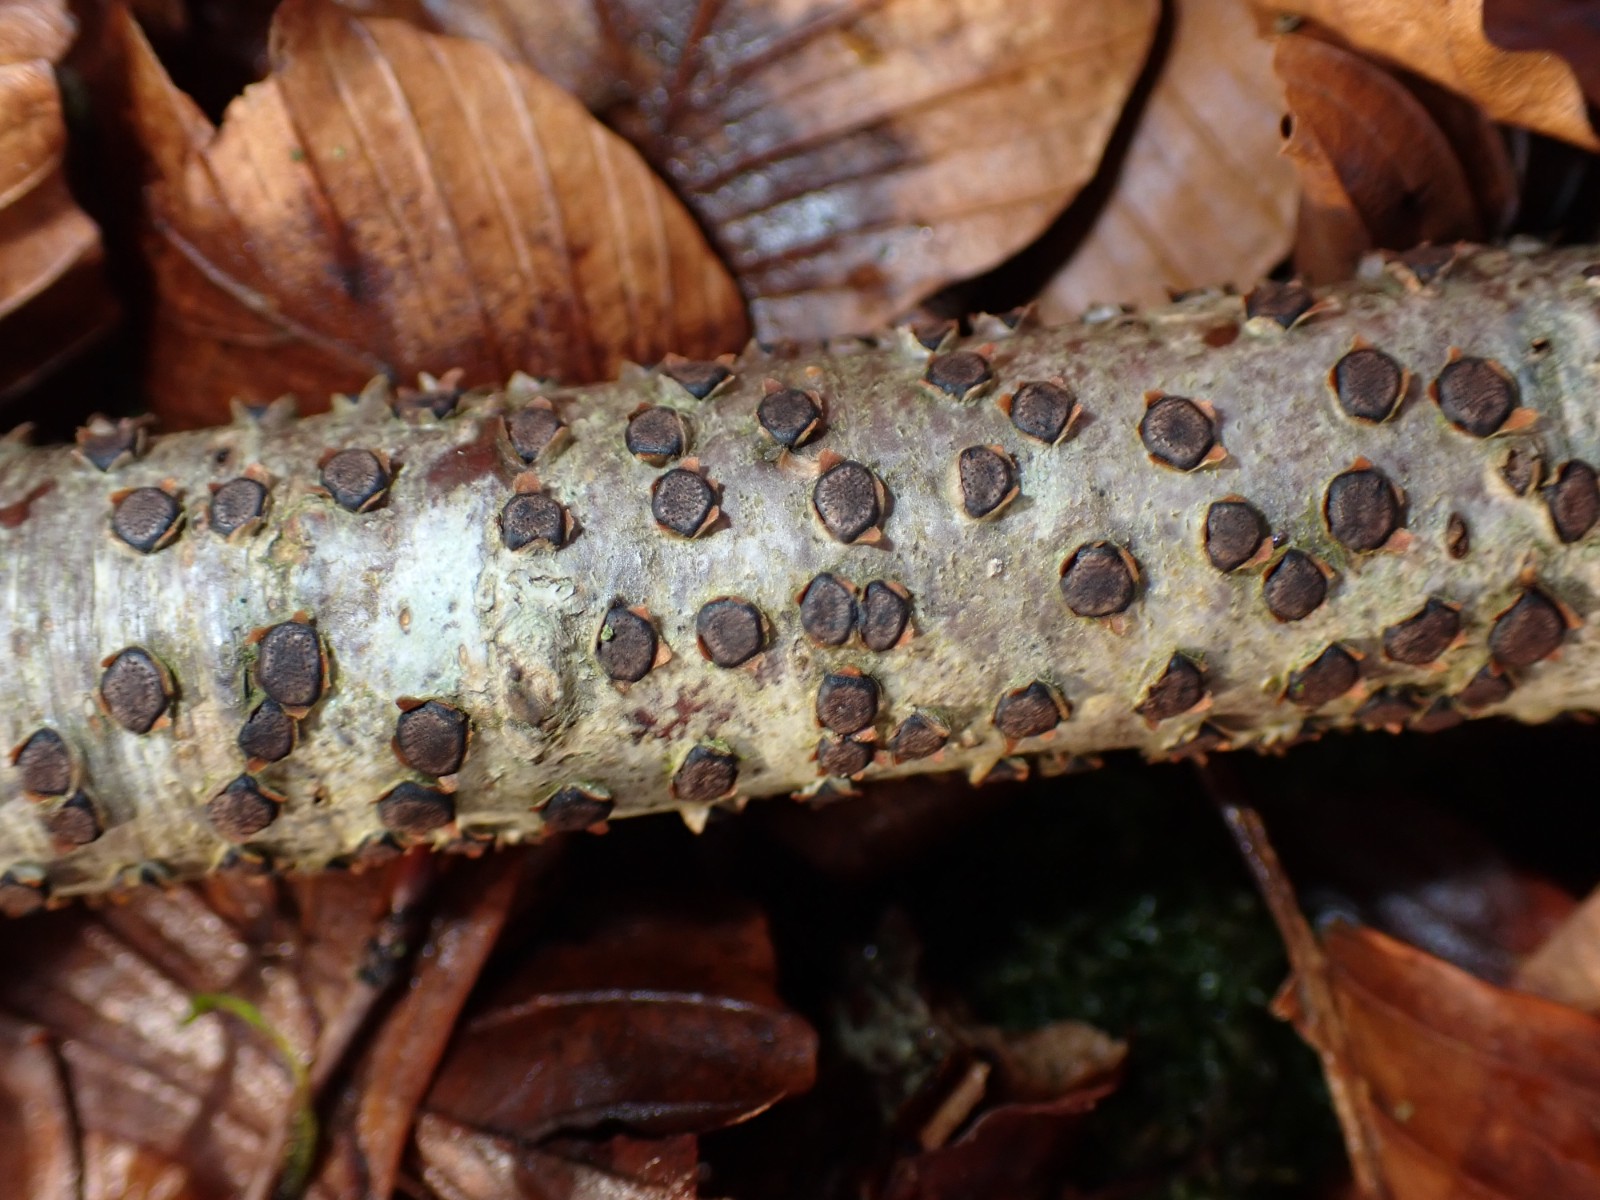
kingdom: Fungi
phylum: Ascomycota
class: Sordariomycetes
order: Xylariales
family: Diatrypaceae
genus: Diatrype
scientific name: Diatrype disciformis
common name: kant-kulskorpe
